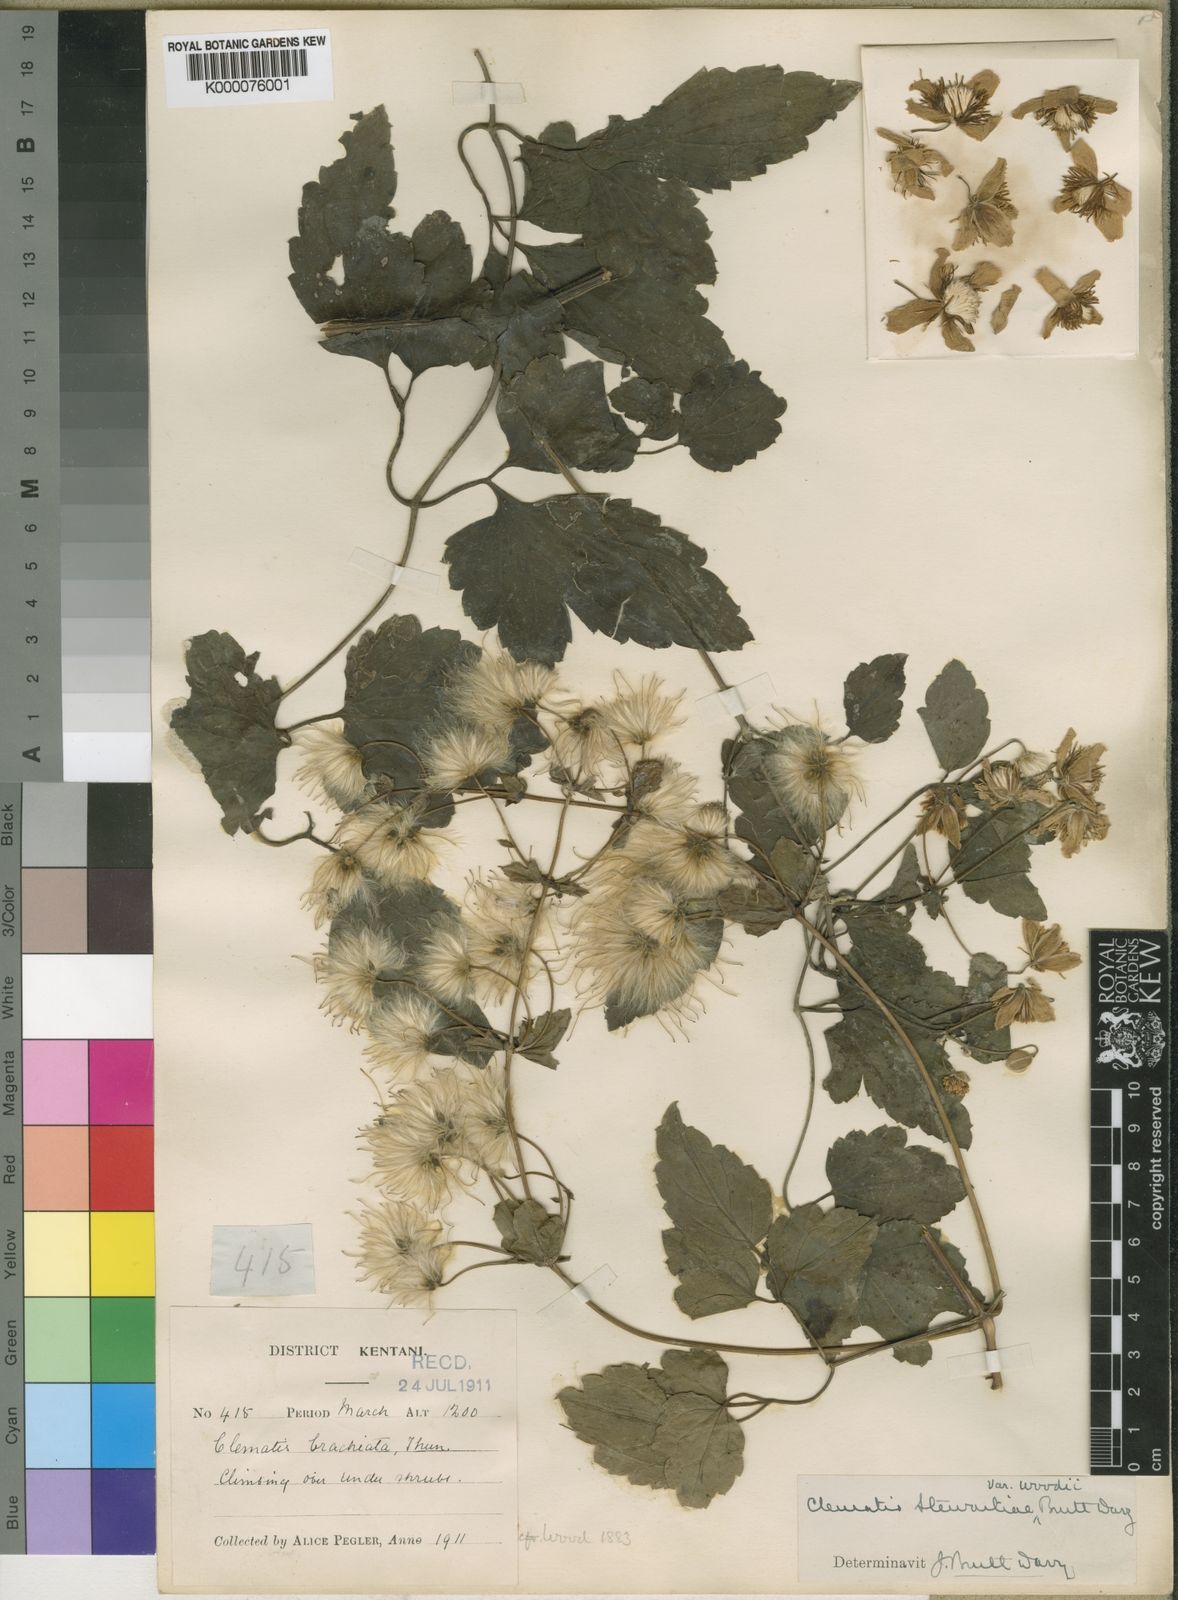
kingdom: Plantae
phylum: Tracheophyta
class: Magnoliopsida
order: Ranunculales
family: Ranunculaceae
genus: Clematis
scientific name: Clematis stewartiae
